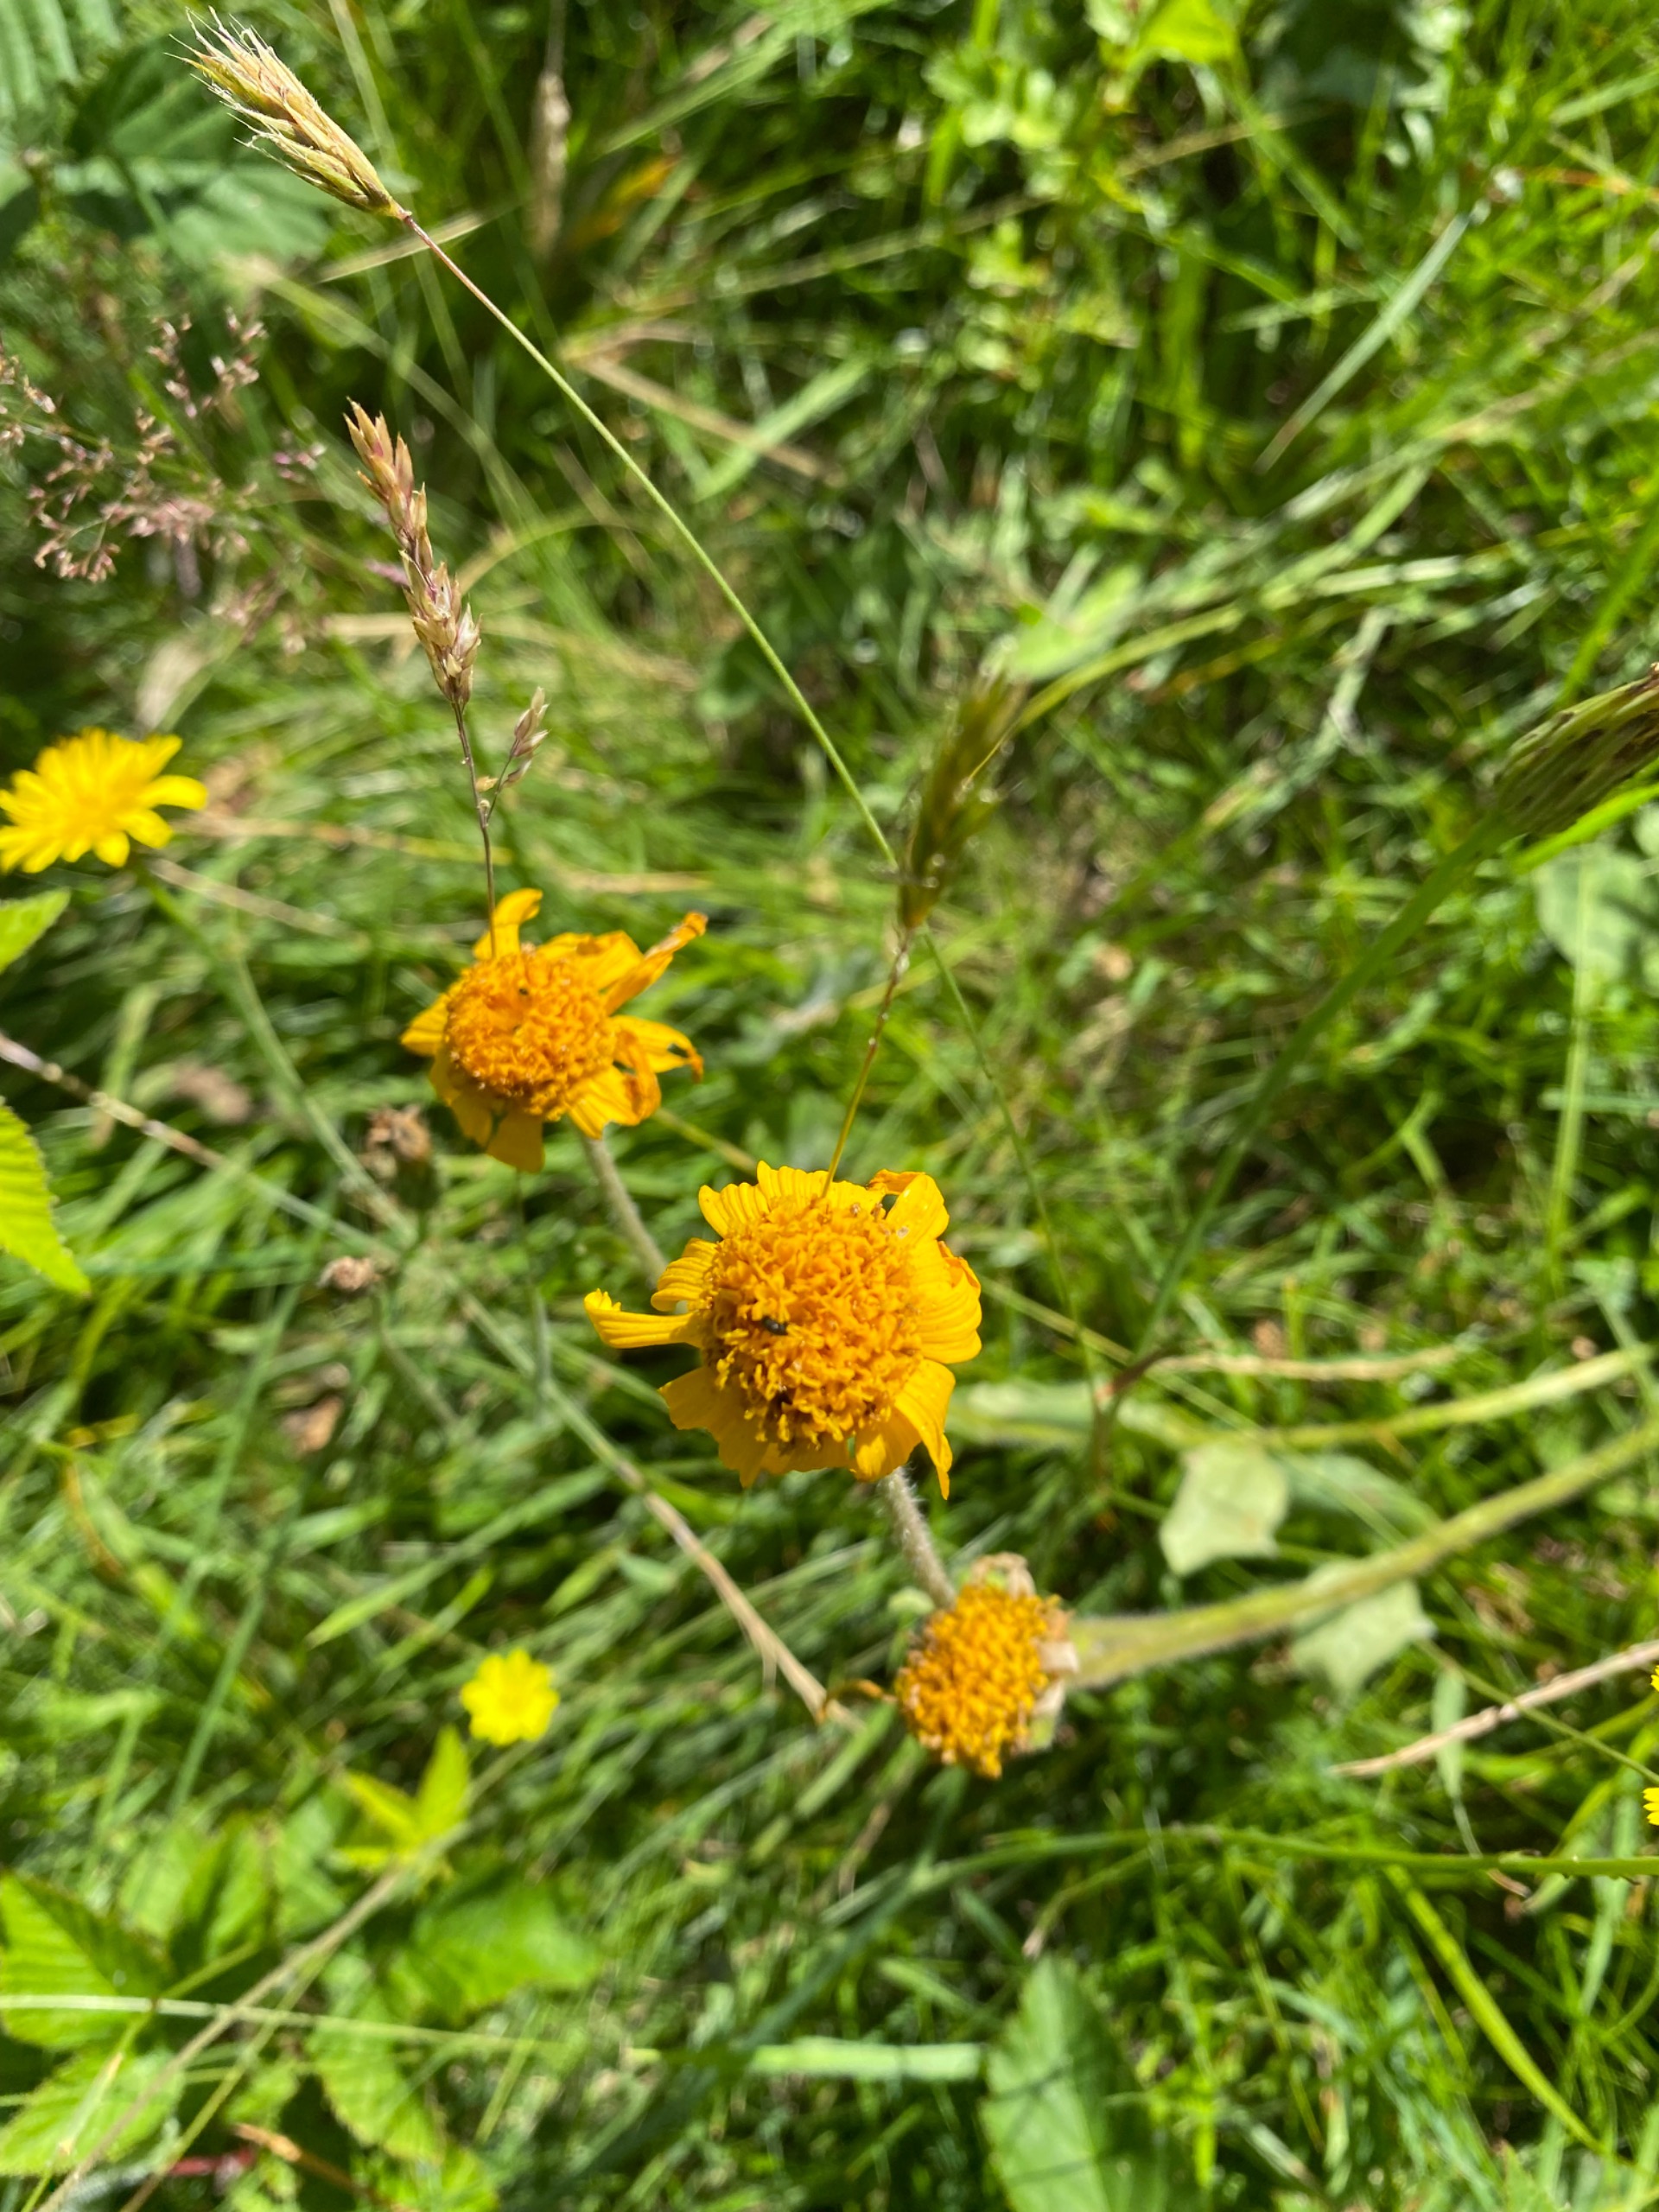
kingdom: Plantae
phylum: Tracheophyta
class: Magnoliopsida
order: Asterales
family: Asteraceae
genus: Arnica
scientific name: Arnica montana
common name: Guldblomme
